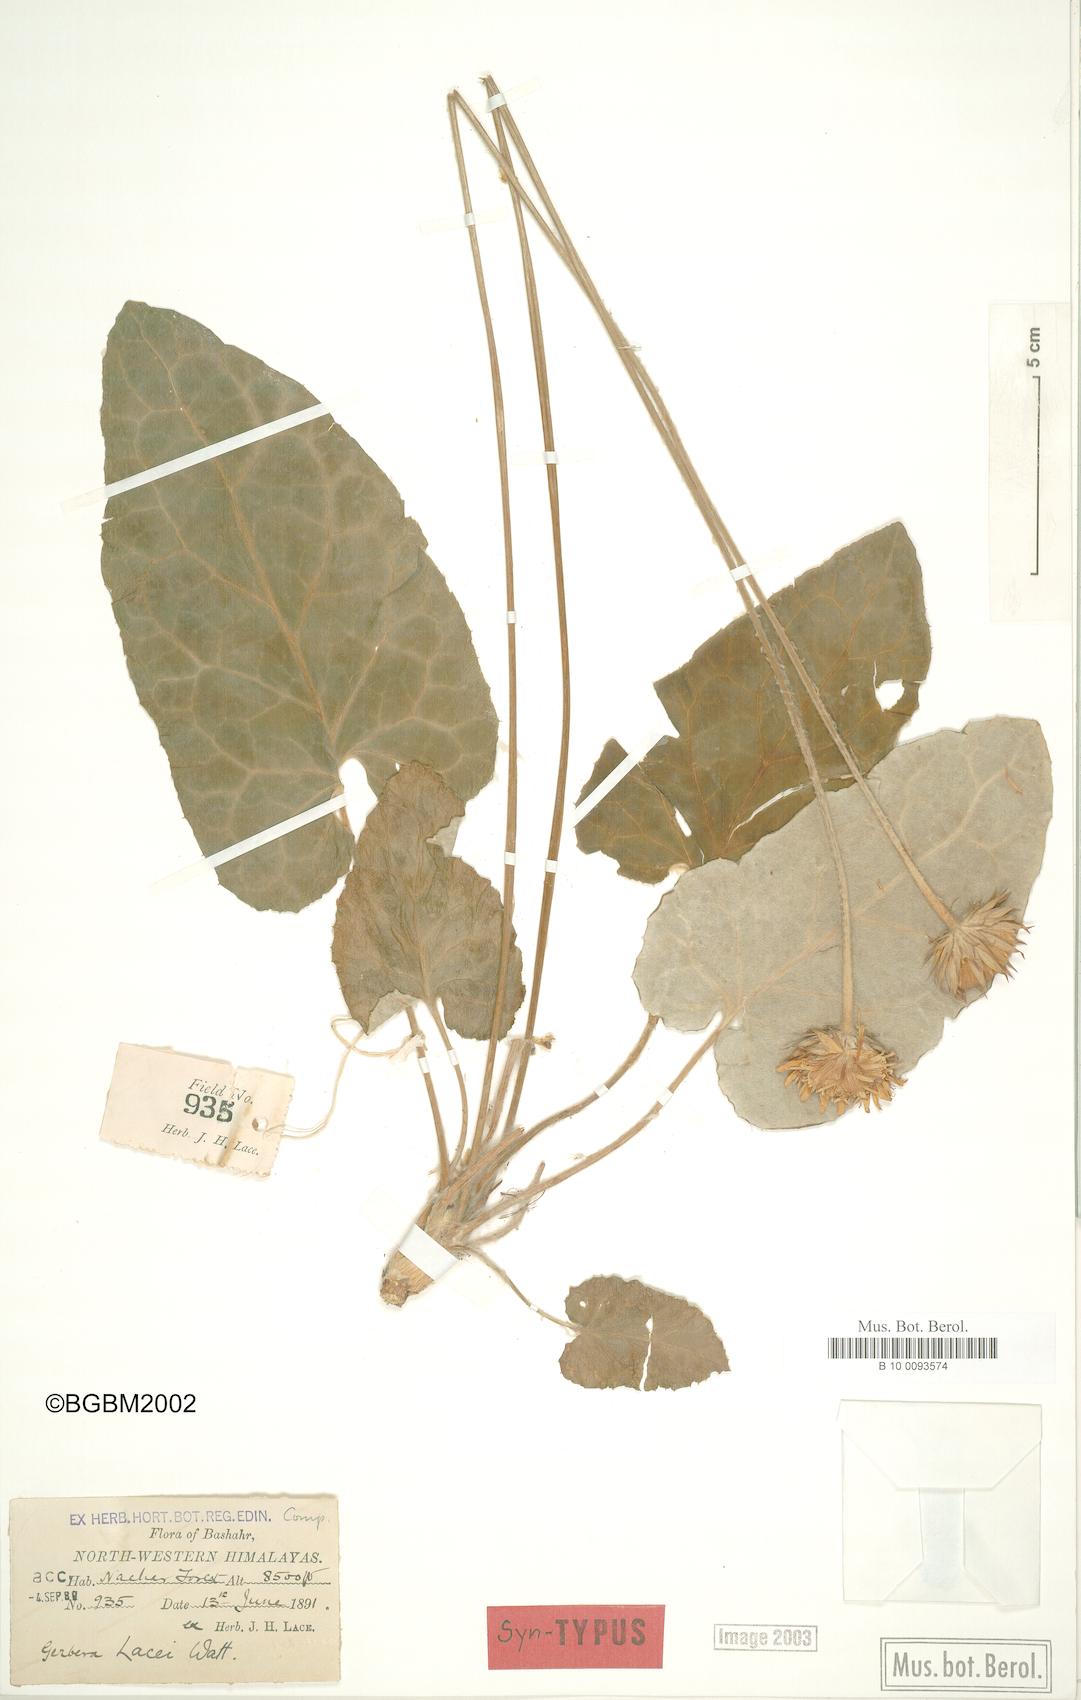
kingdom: Plantae
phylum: Tracheophyta
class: Magnoliopsida
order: Asterales
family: Asteraceae
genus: Oreoseris
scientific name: Oreoseris lacei
